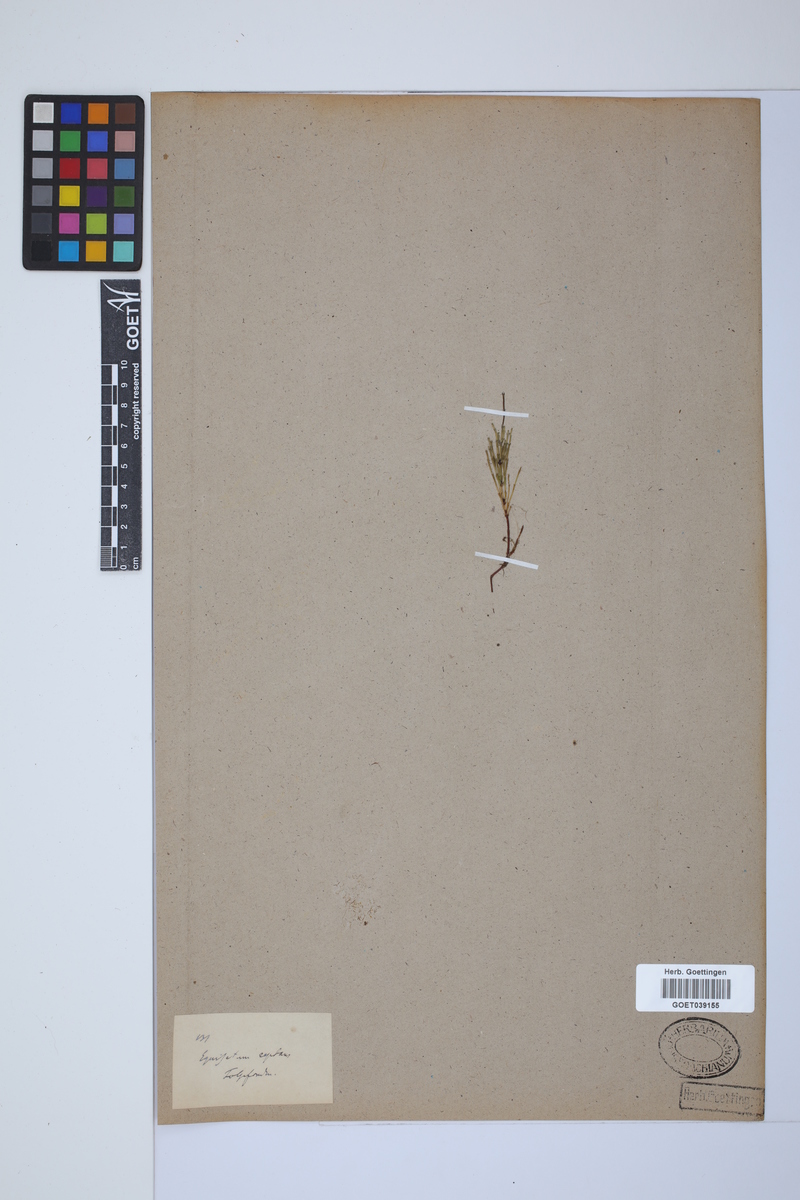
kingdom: Plantae
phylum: Tracheophyta
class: Polypodiopsida
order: Equisetales
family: Equisetaceae
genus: Equisetum
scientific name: Equisetum scirpoides
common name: Delicate horsetail
